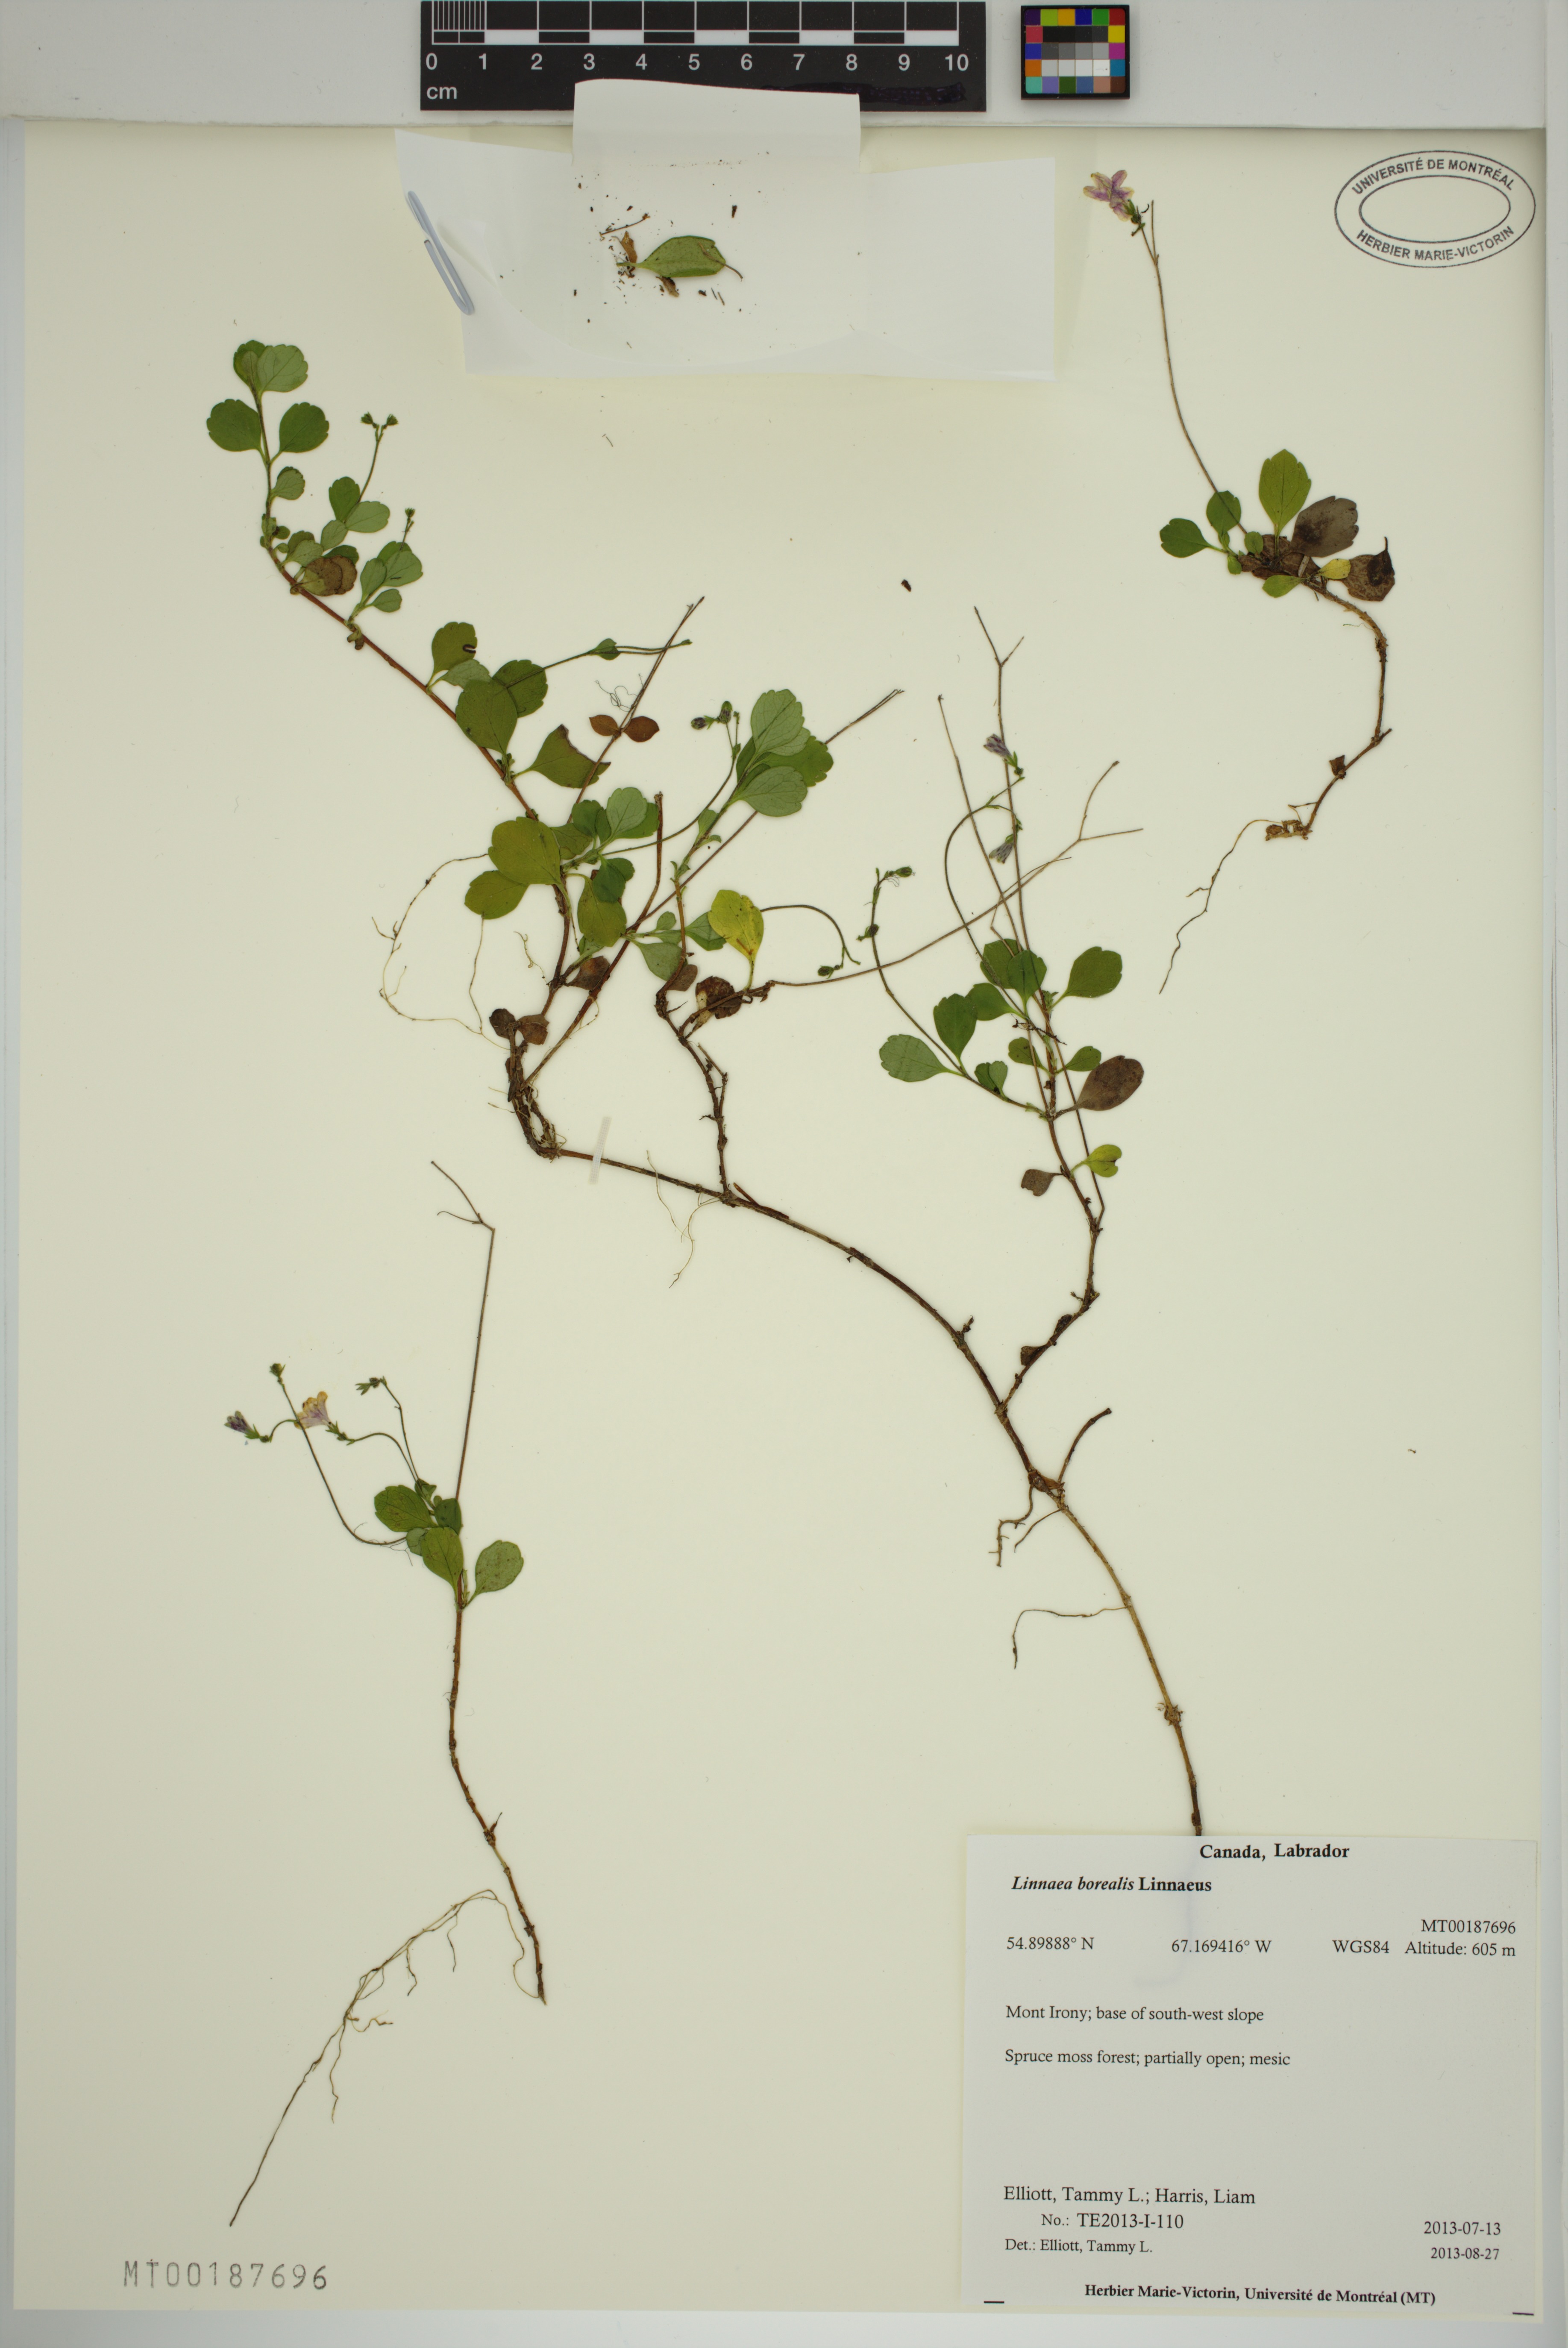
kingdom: Plantae
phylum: Tracheophyta
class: Magnoliopsida
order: Dipsacales
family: Caprifoliaceae
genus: Linnaea
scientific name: Linnaea borealis
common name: Twinflower
